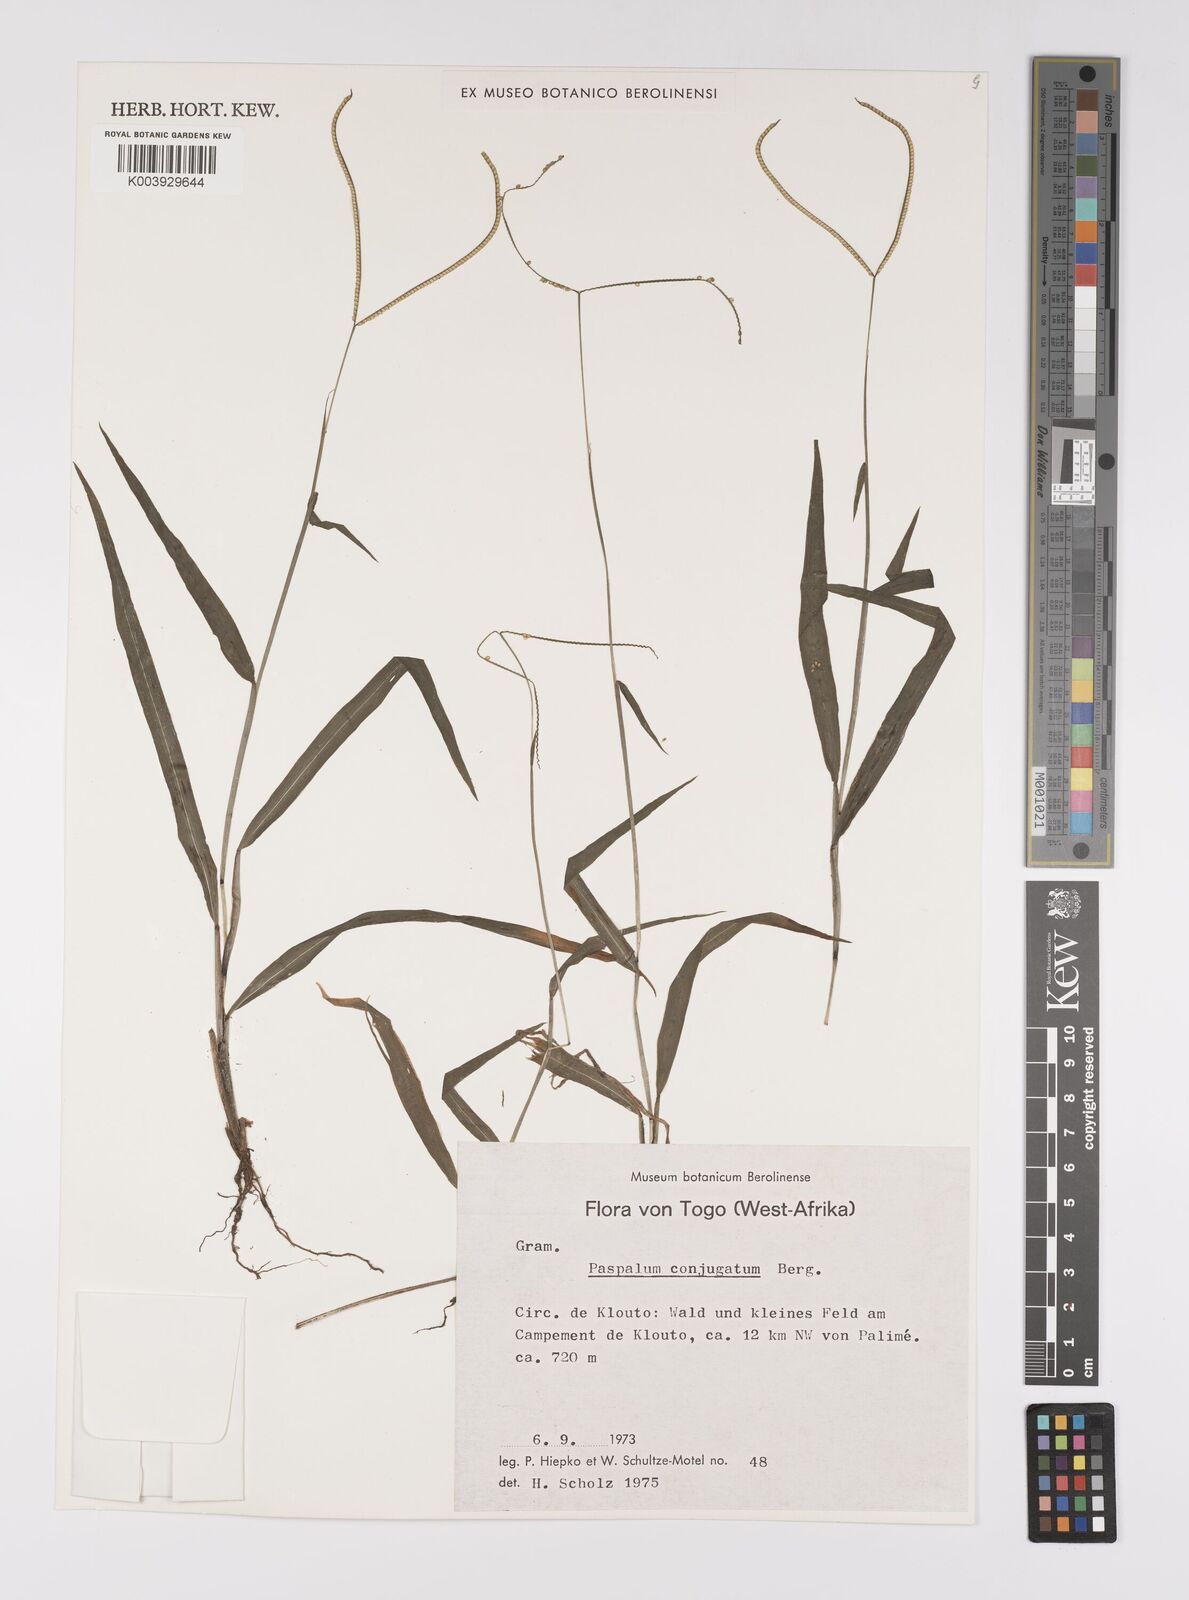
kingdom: Plantae
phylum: Tracheophyta
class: Liliopsida
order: Poales
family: Poaceae
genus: Paspalum
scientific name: Paspalum conjugatum
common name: Hilograss
